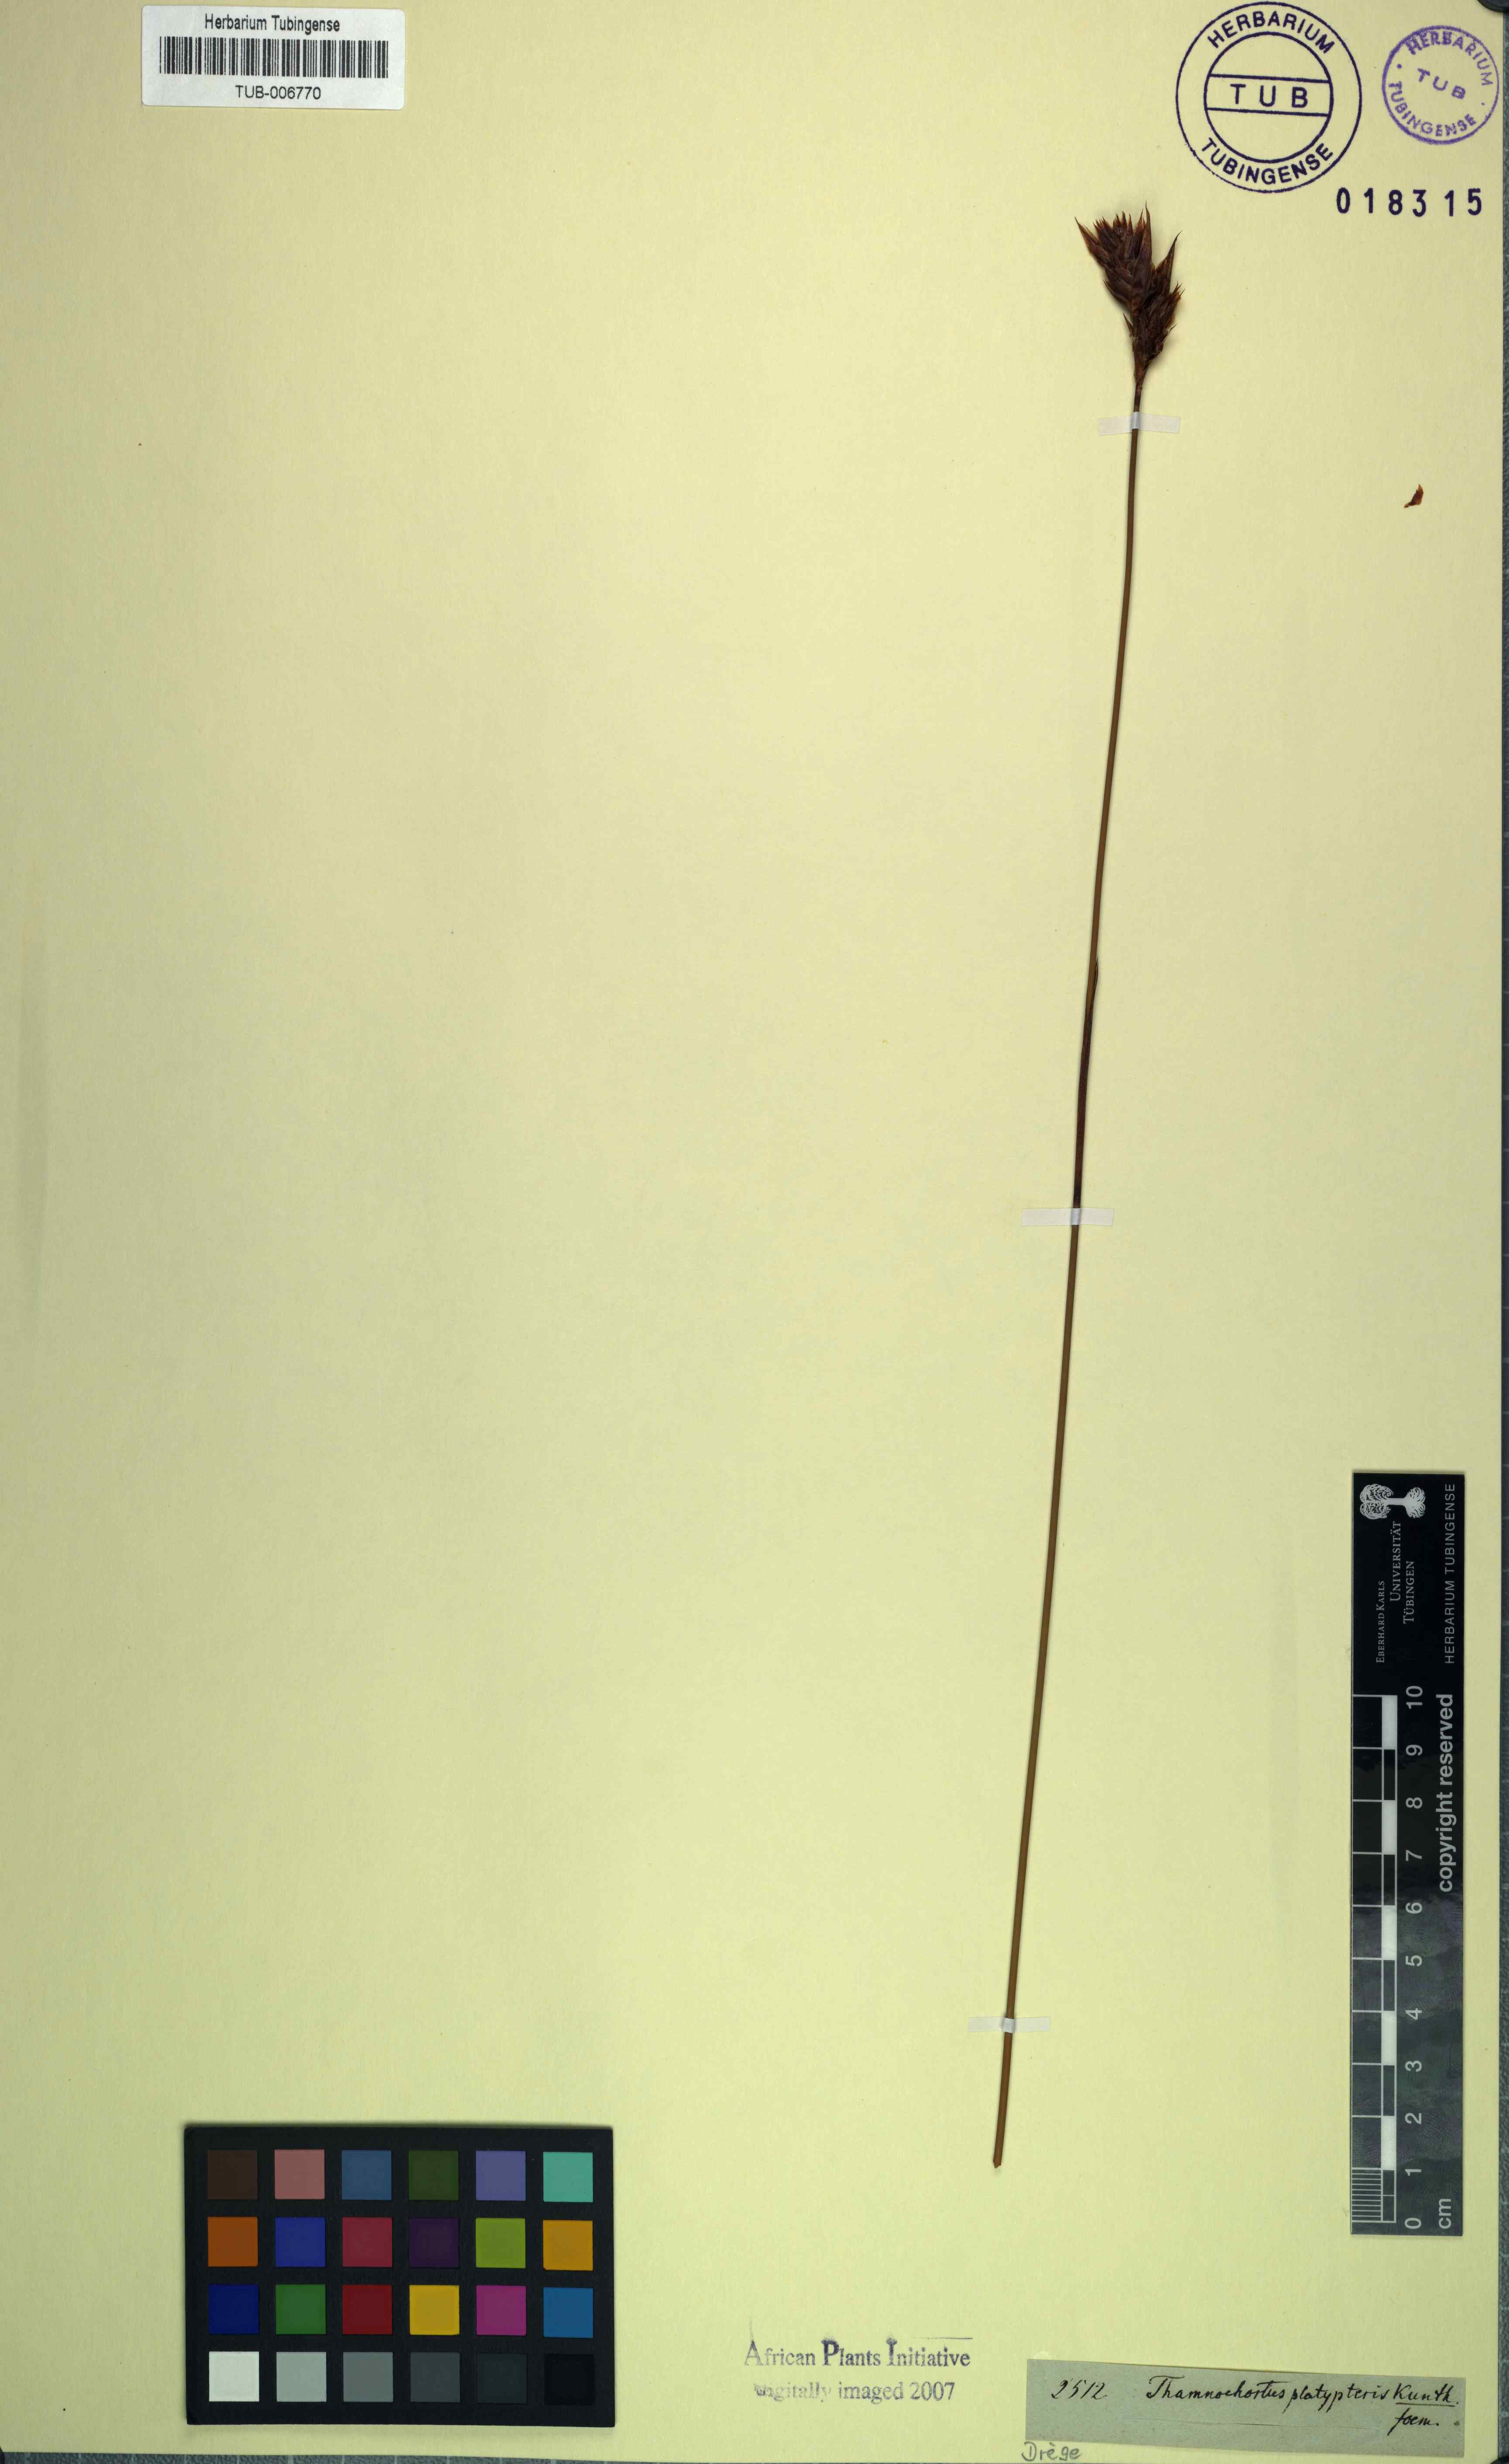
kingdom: Plantae
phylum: Tracheophyta
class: Liliopsida
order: Poales
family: Restionaceae
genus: Thamnochortus
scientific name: Thamnochortus platypteris
